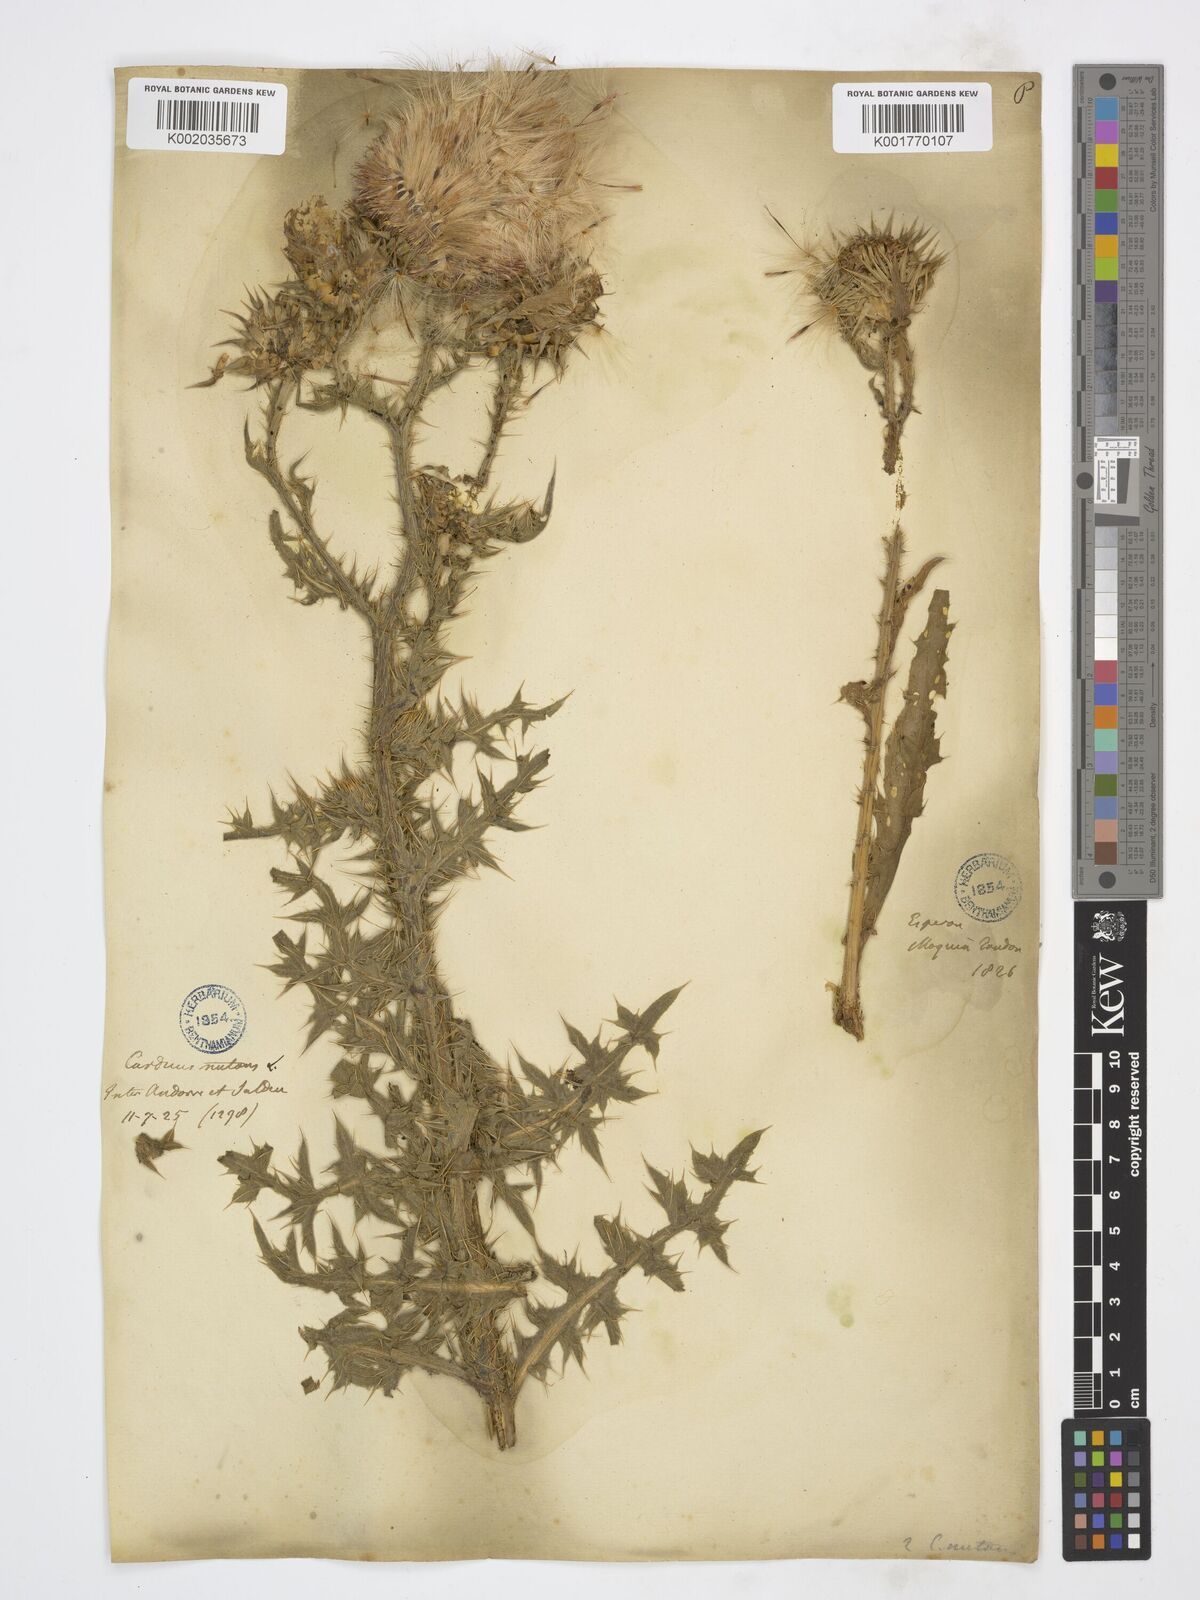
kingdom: Plantae
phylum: Tracheophyta
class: Magnoliopsida
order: Asterales
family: Asteraceae
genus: Carduus
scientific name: Carduus nutans
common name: Musk thistle
